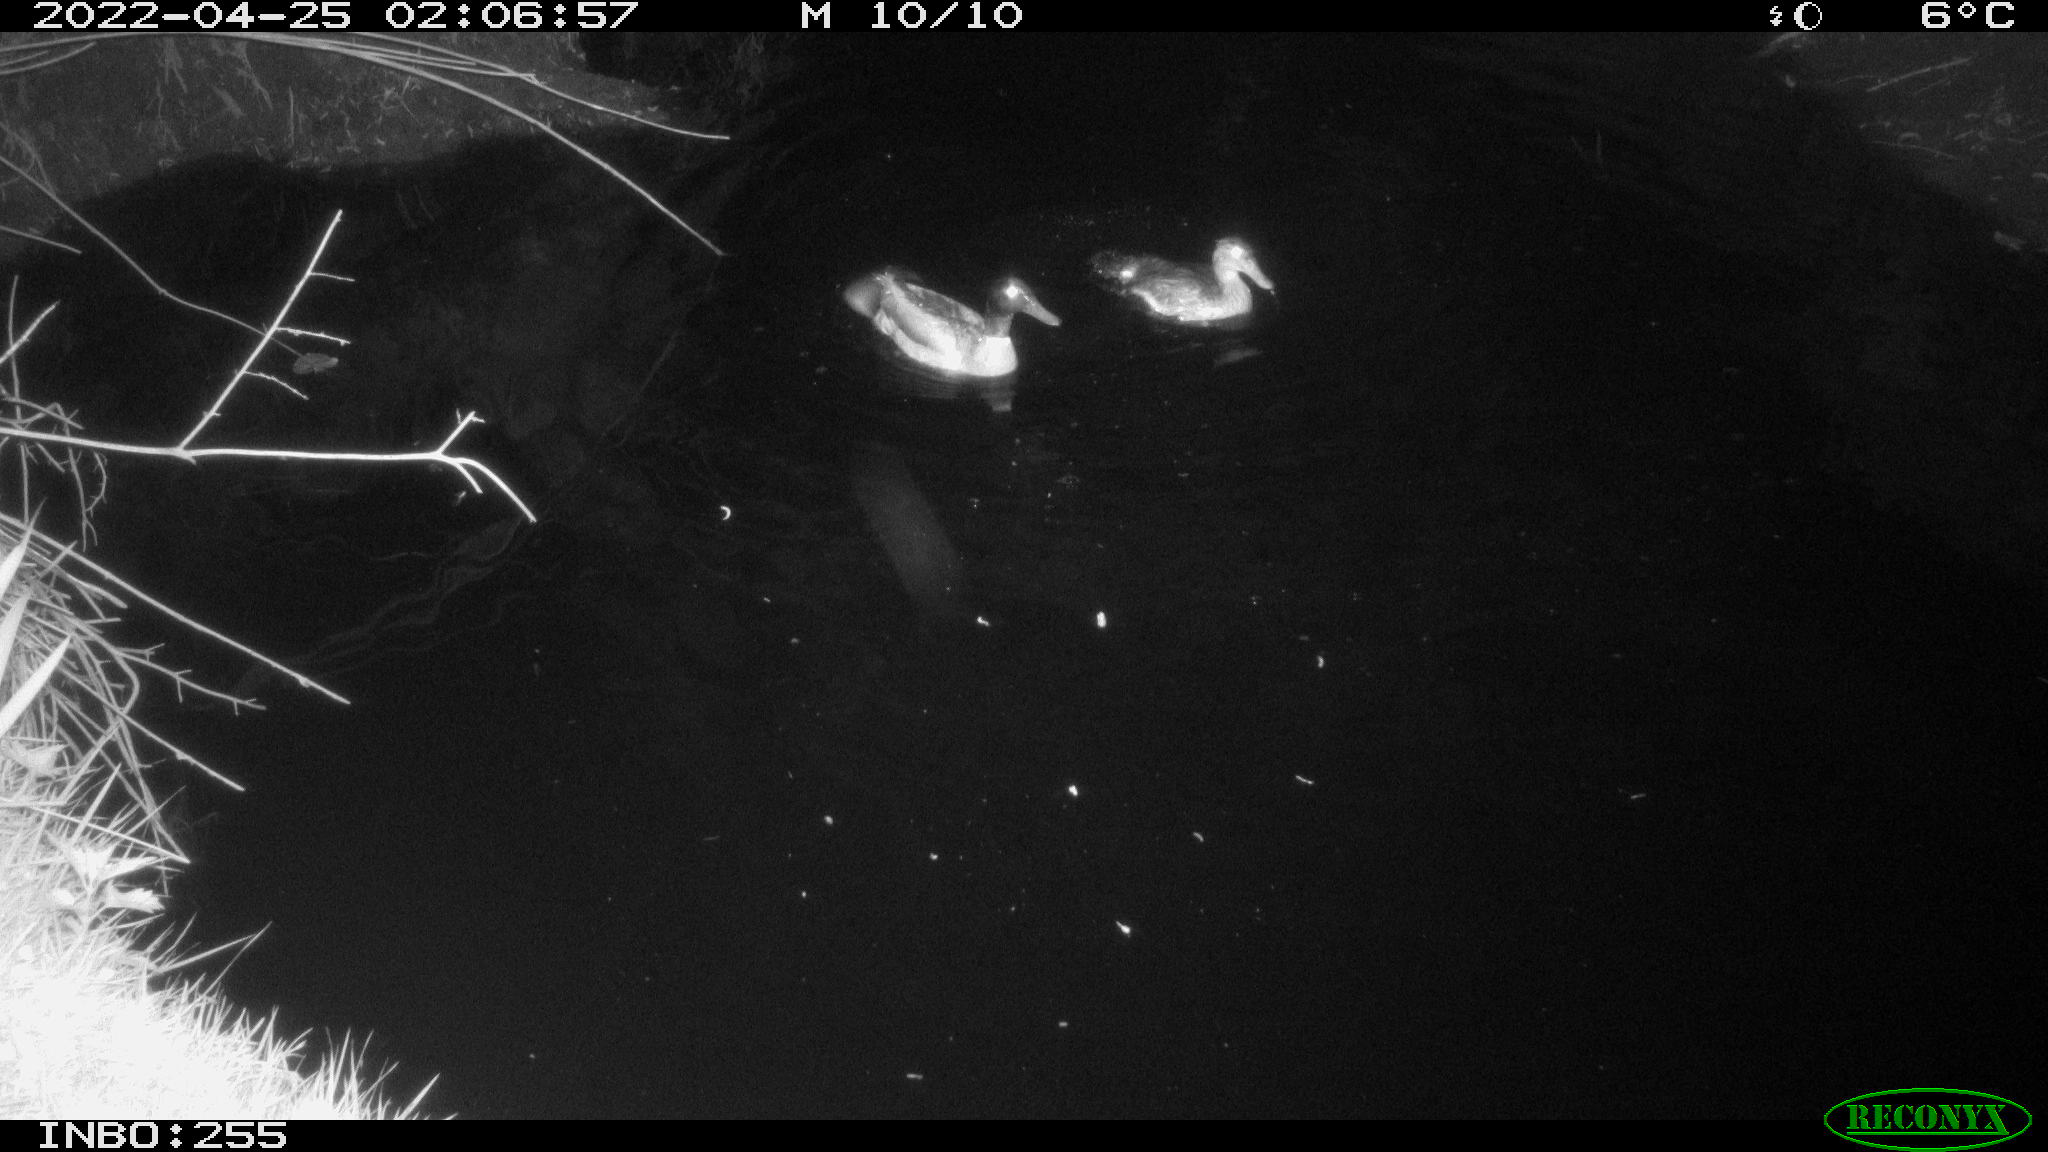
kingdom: Animalia
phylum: Chordata
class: Aves
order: Anseriformes
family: Anatidae
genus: Anas
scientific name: Anas platyrhynchos
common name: Mallard
